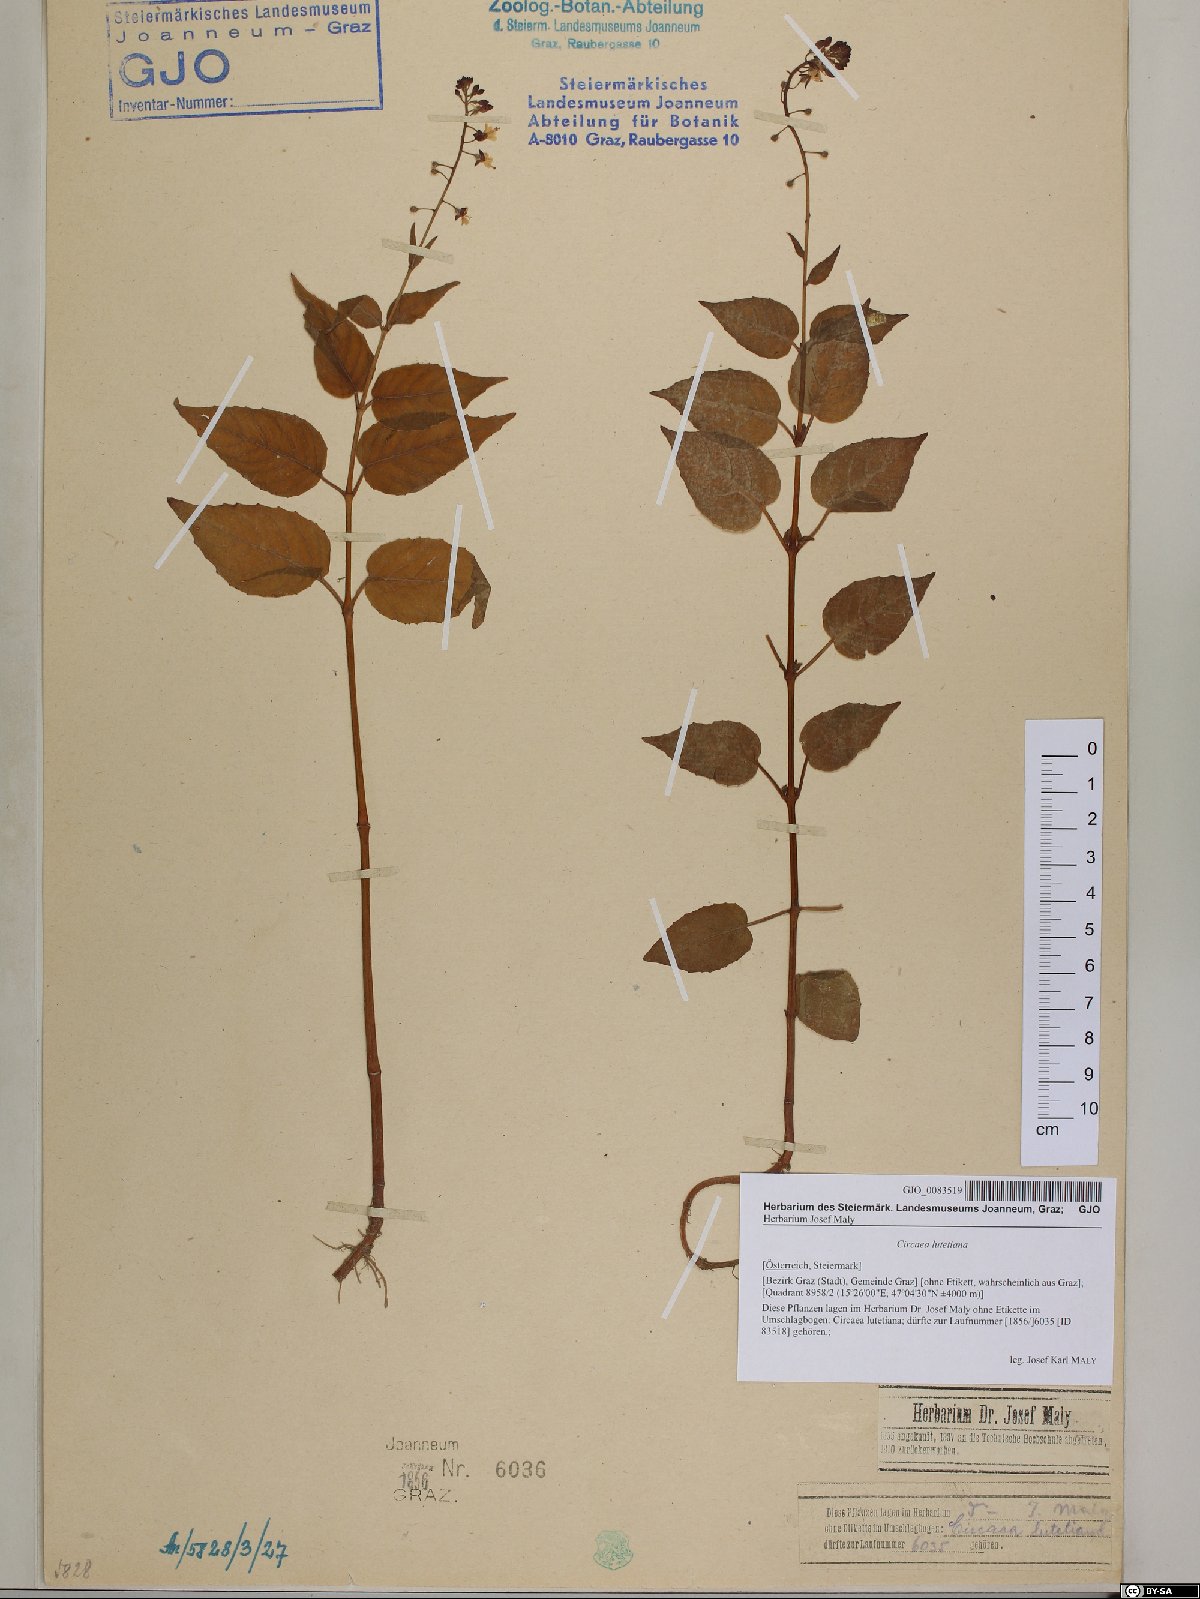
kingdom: Plantae
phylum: Tracheophyta
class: Magnoliopsida
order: Myrtales
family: Onagraceae
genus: Circaea
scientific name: Circaea lutetiana
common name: Enchanter's-nightshade
